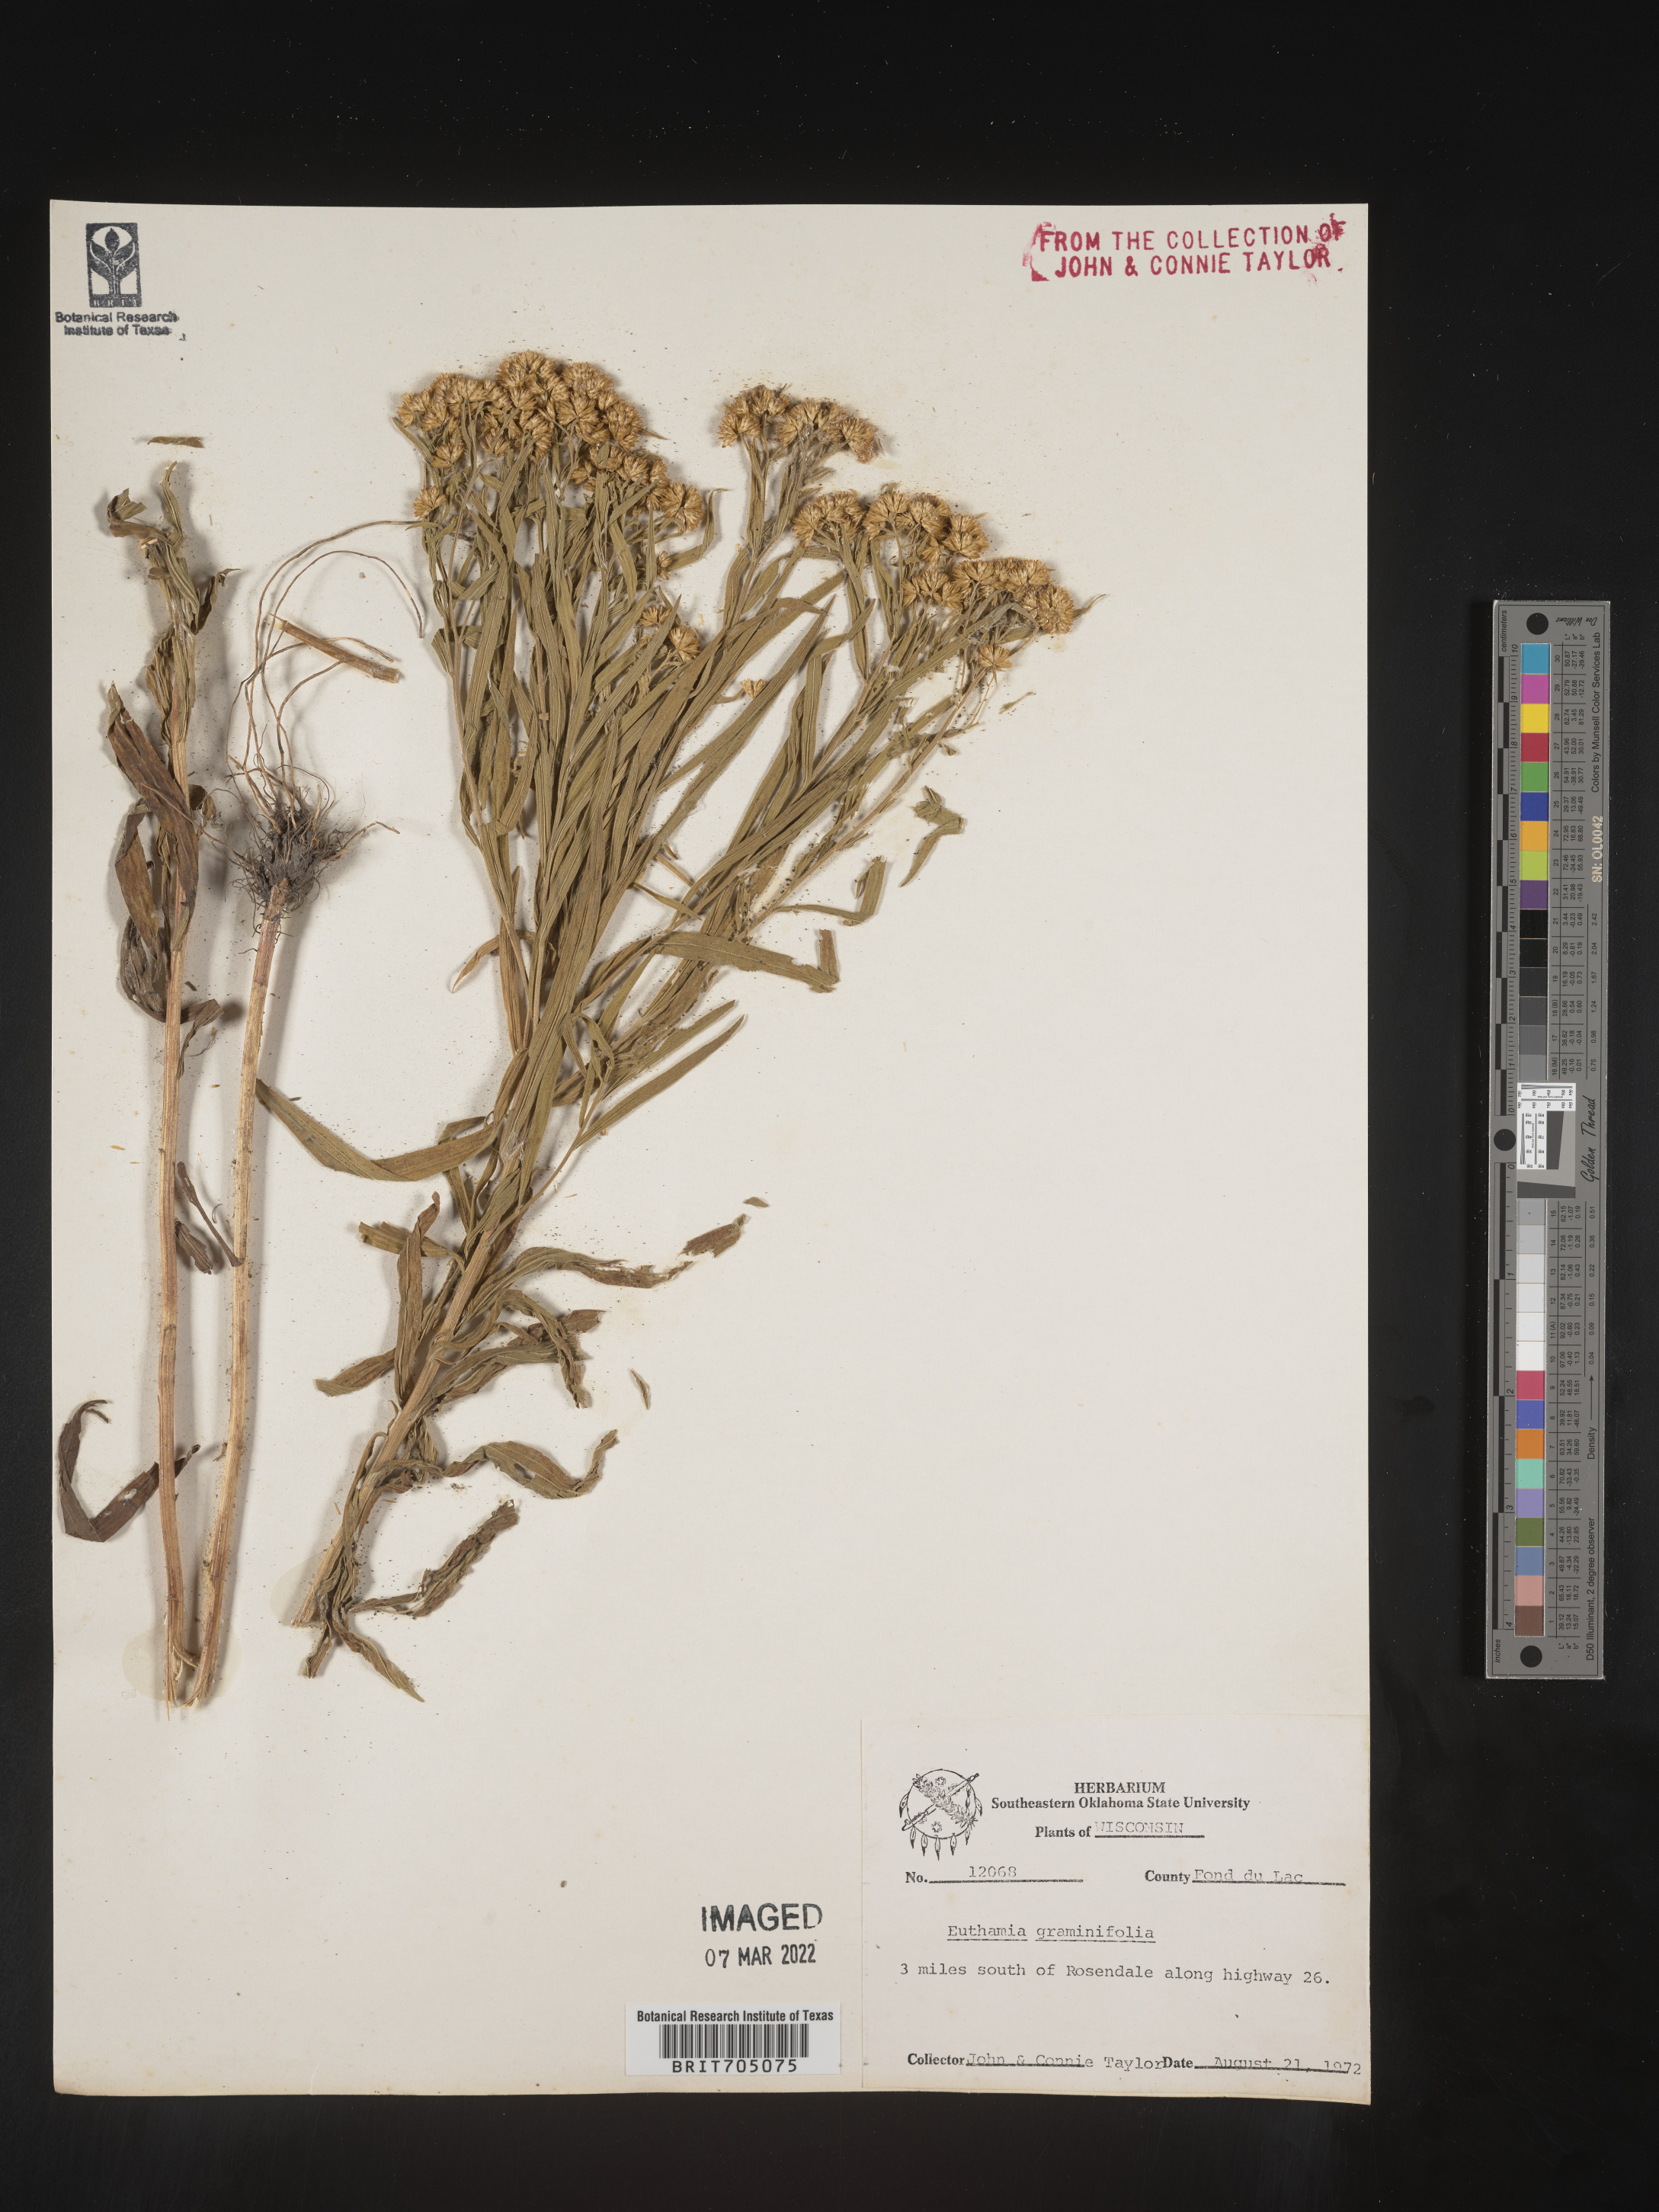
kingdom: Plantae
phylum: Tracheophyta
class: Magnoliopsida
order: Asterales
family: Asteraceae
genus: Euthamia
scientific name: Euthamia
